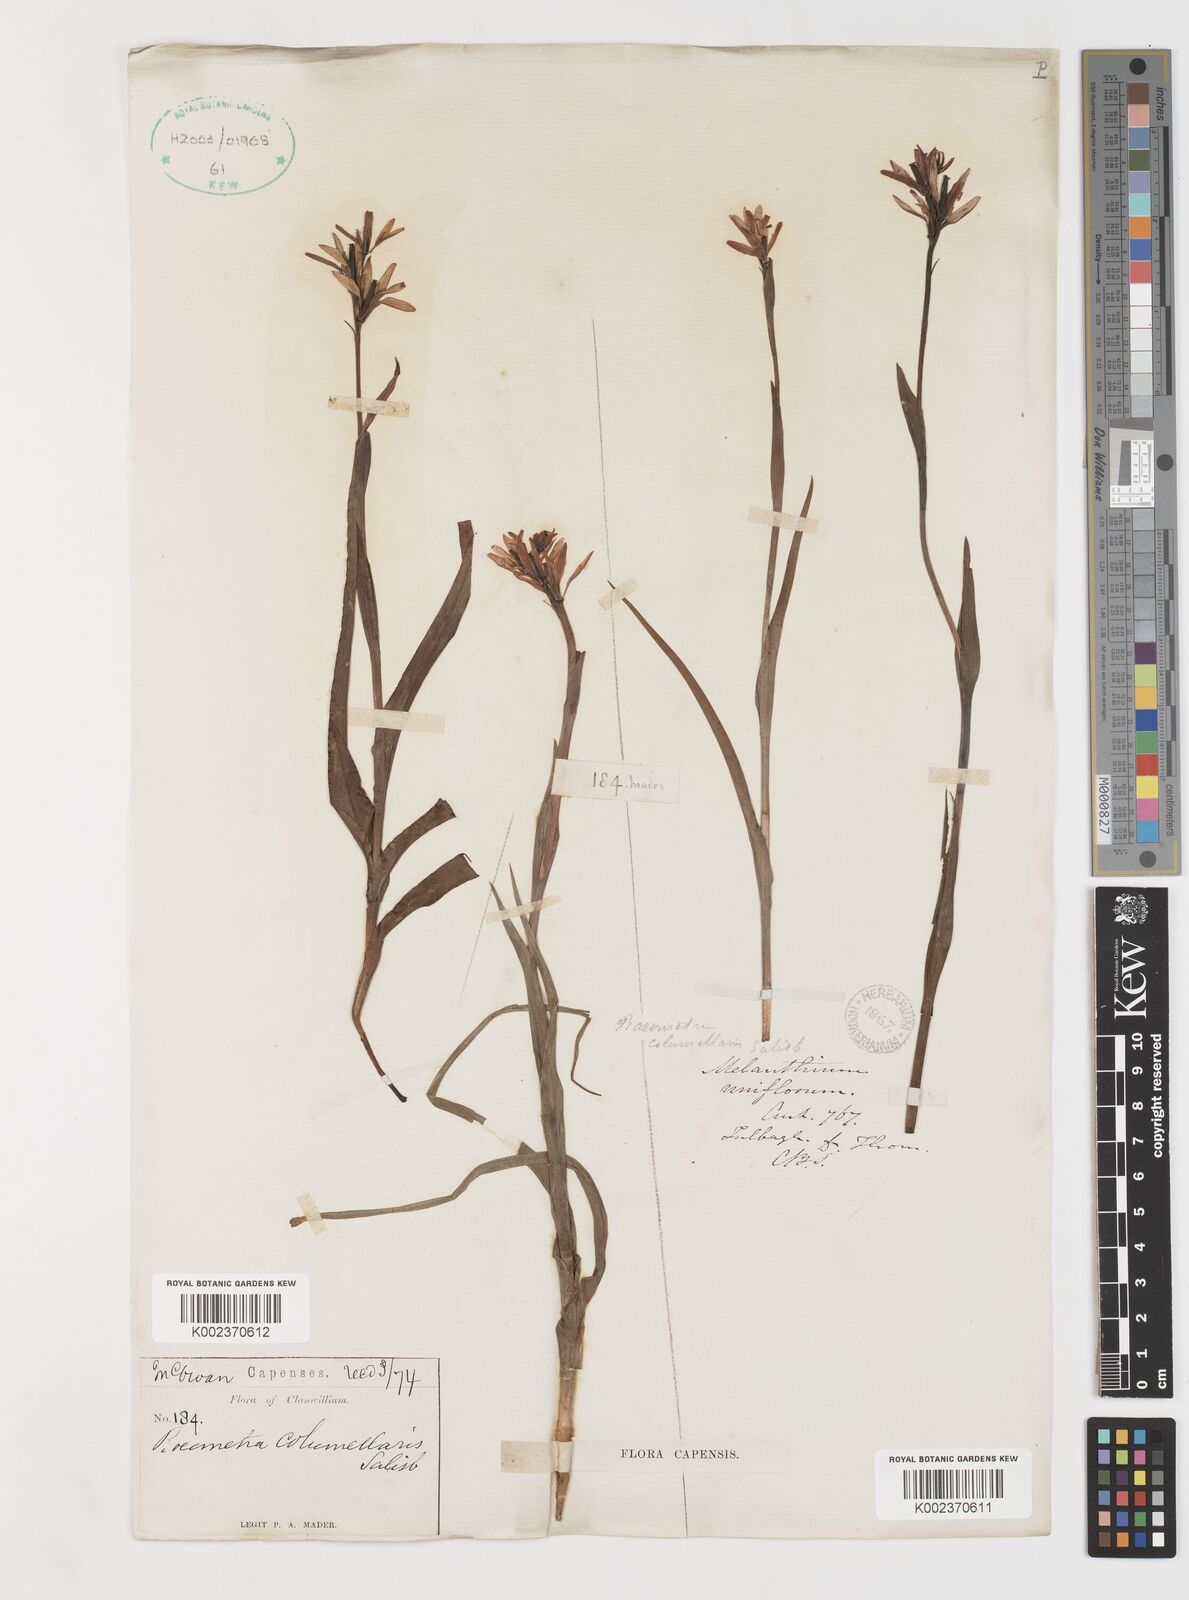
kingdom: Plantae
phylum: Tracheophyta
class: Liliopsida
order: Liliales
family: Colchicaceae
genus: Baeometra
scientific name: Baeometra uniflora
